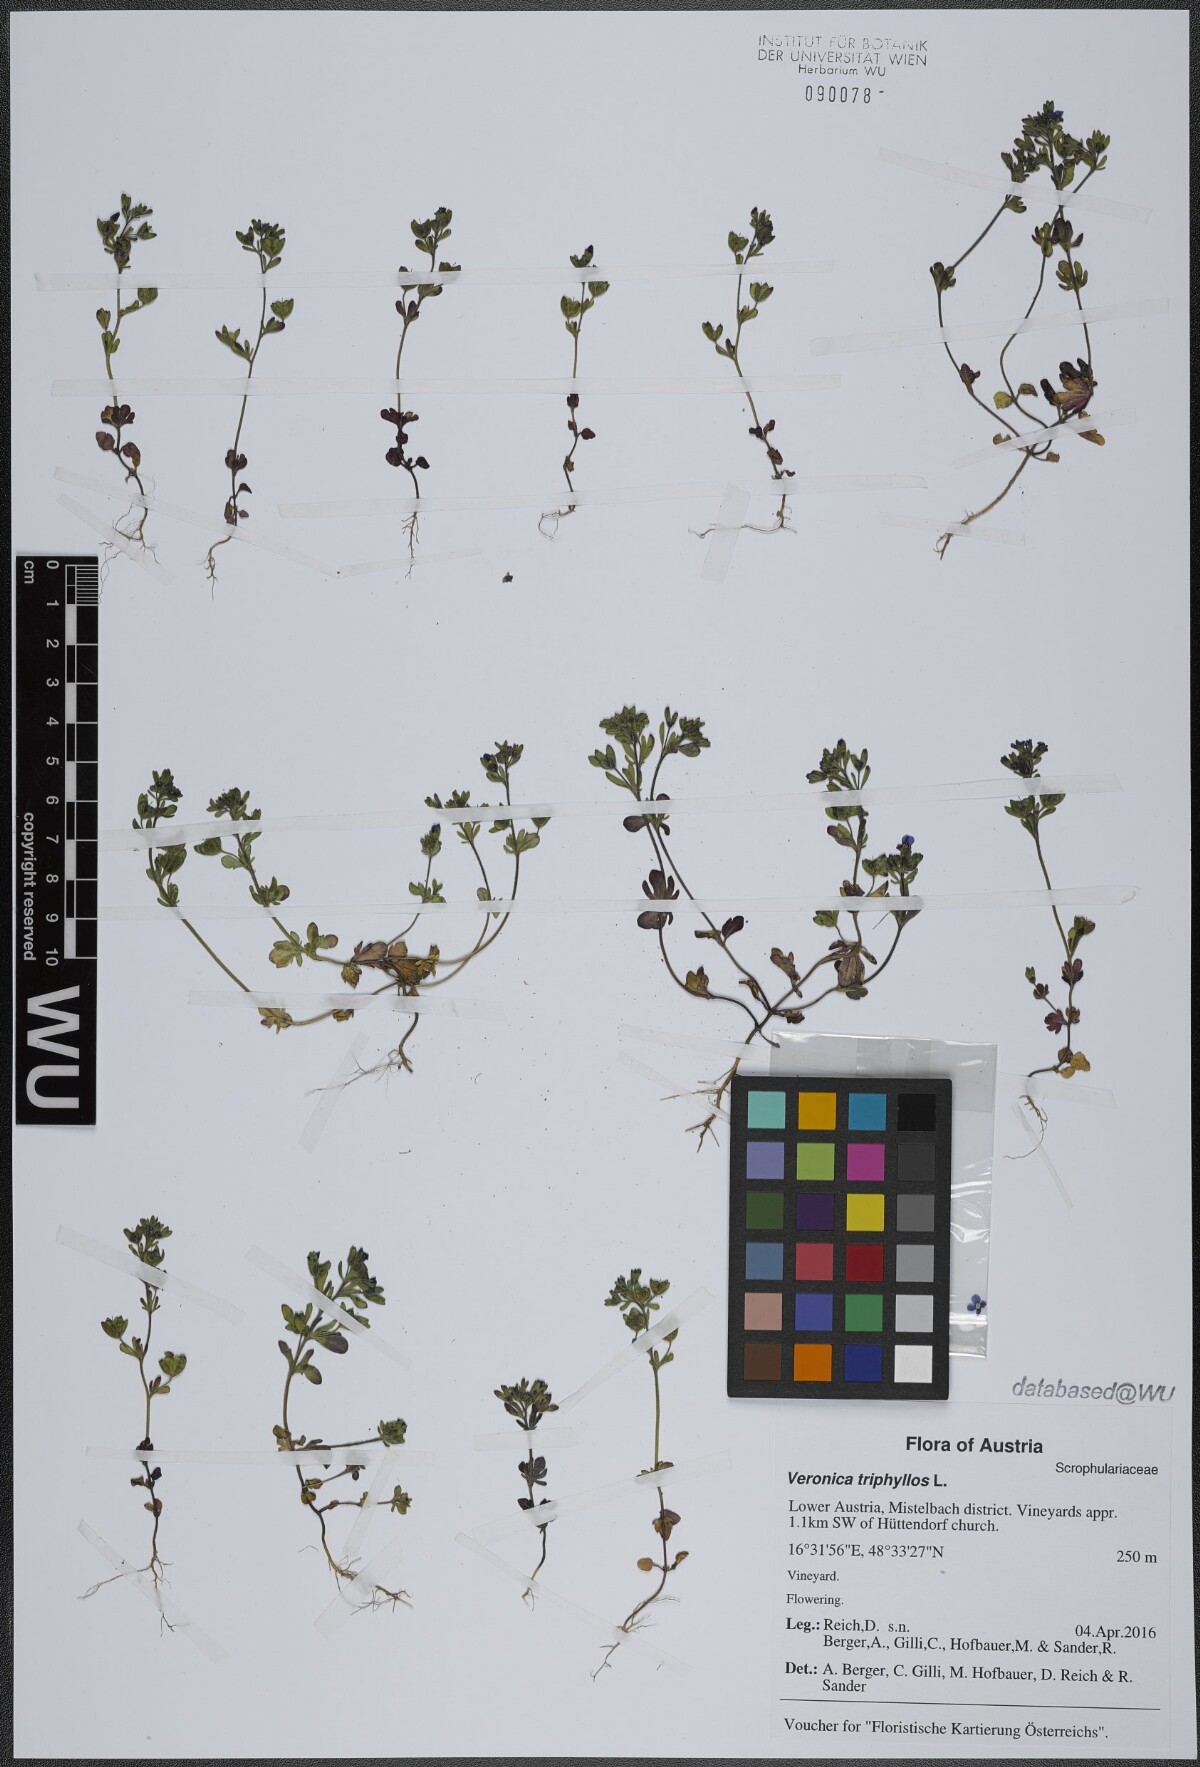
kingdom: Plantae
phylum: Tracheophyta
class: Magnoliopsida
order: Lamiales
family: Plantaginaceae
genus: Veronica
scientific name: Veronica triphyllos
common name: Fingered speedwell
